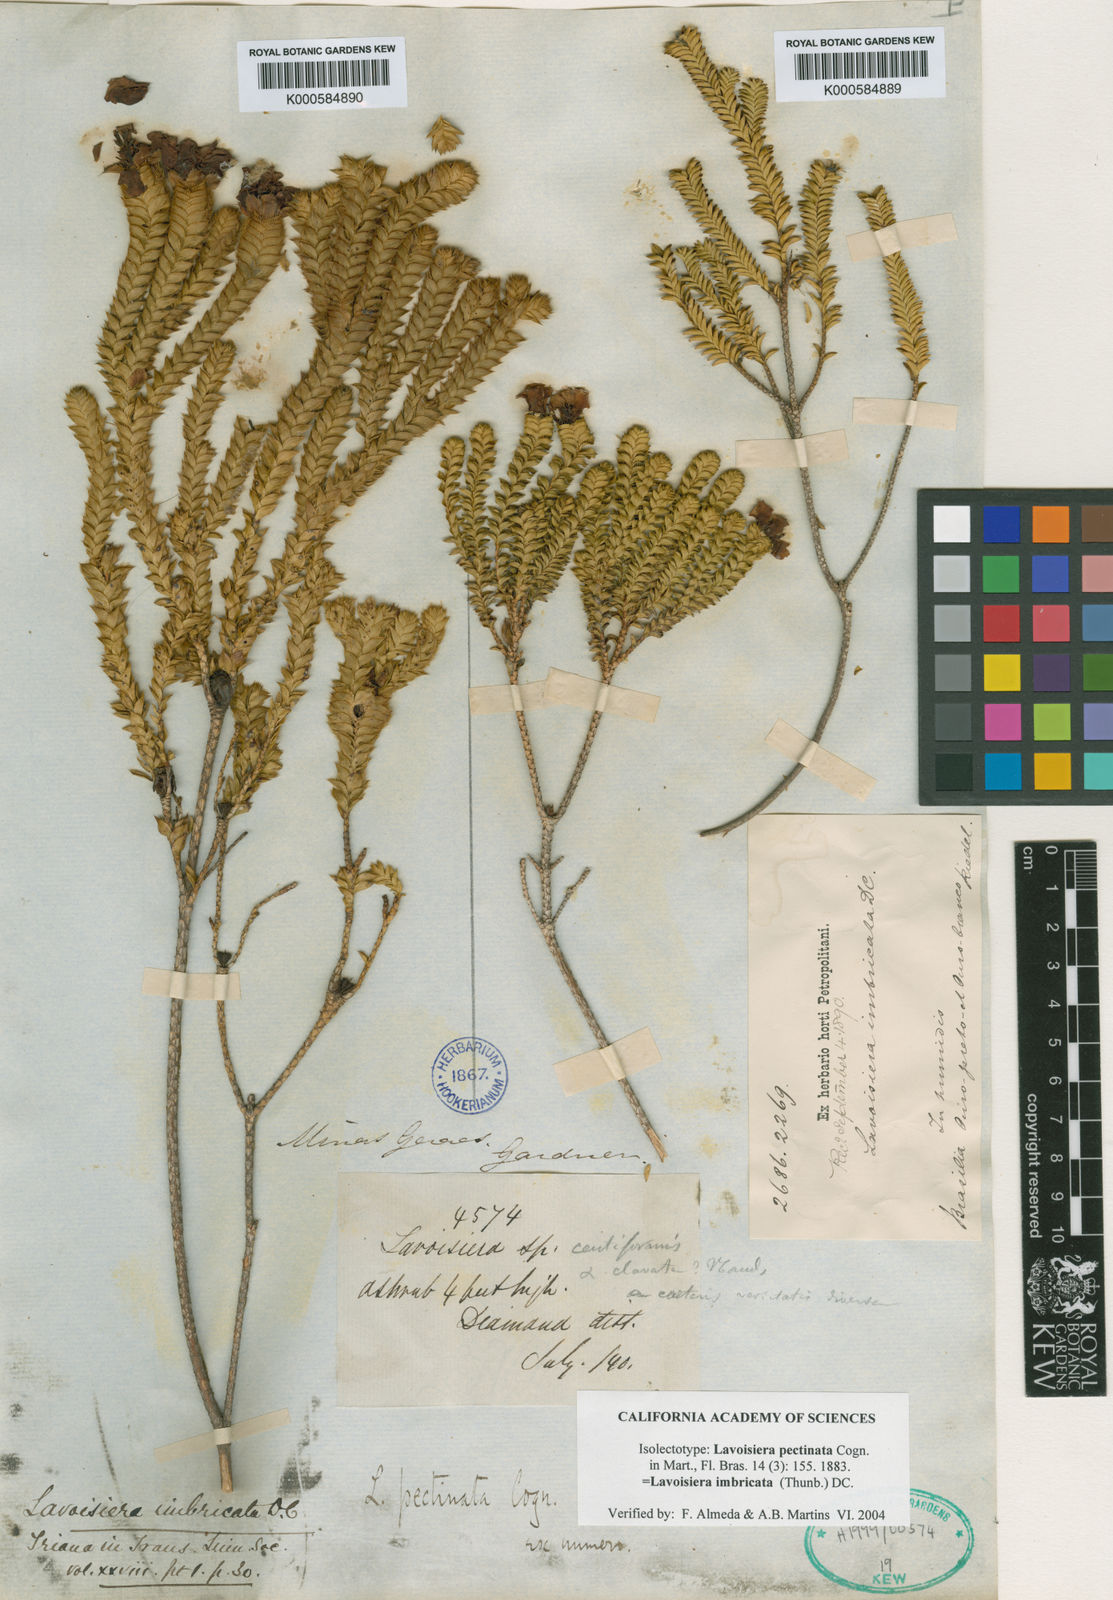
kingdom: Plantae
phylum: Tracheophyta
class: Magnoliopsida
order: Myrtales
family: Melastomataceae
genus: Microlicia
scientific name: Microlicia cataphracta
